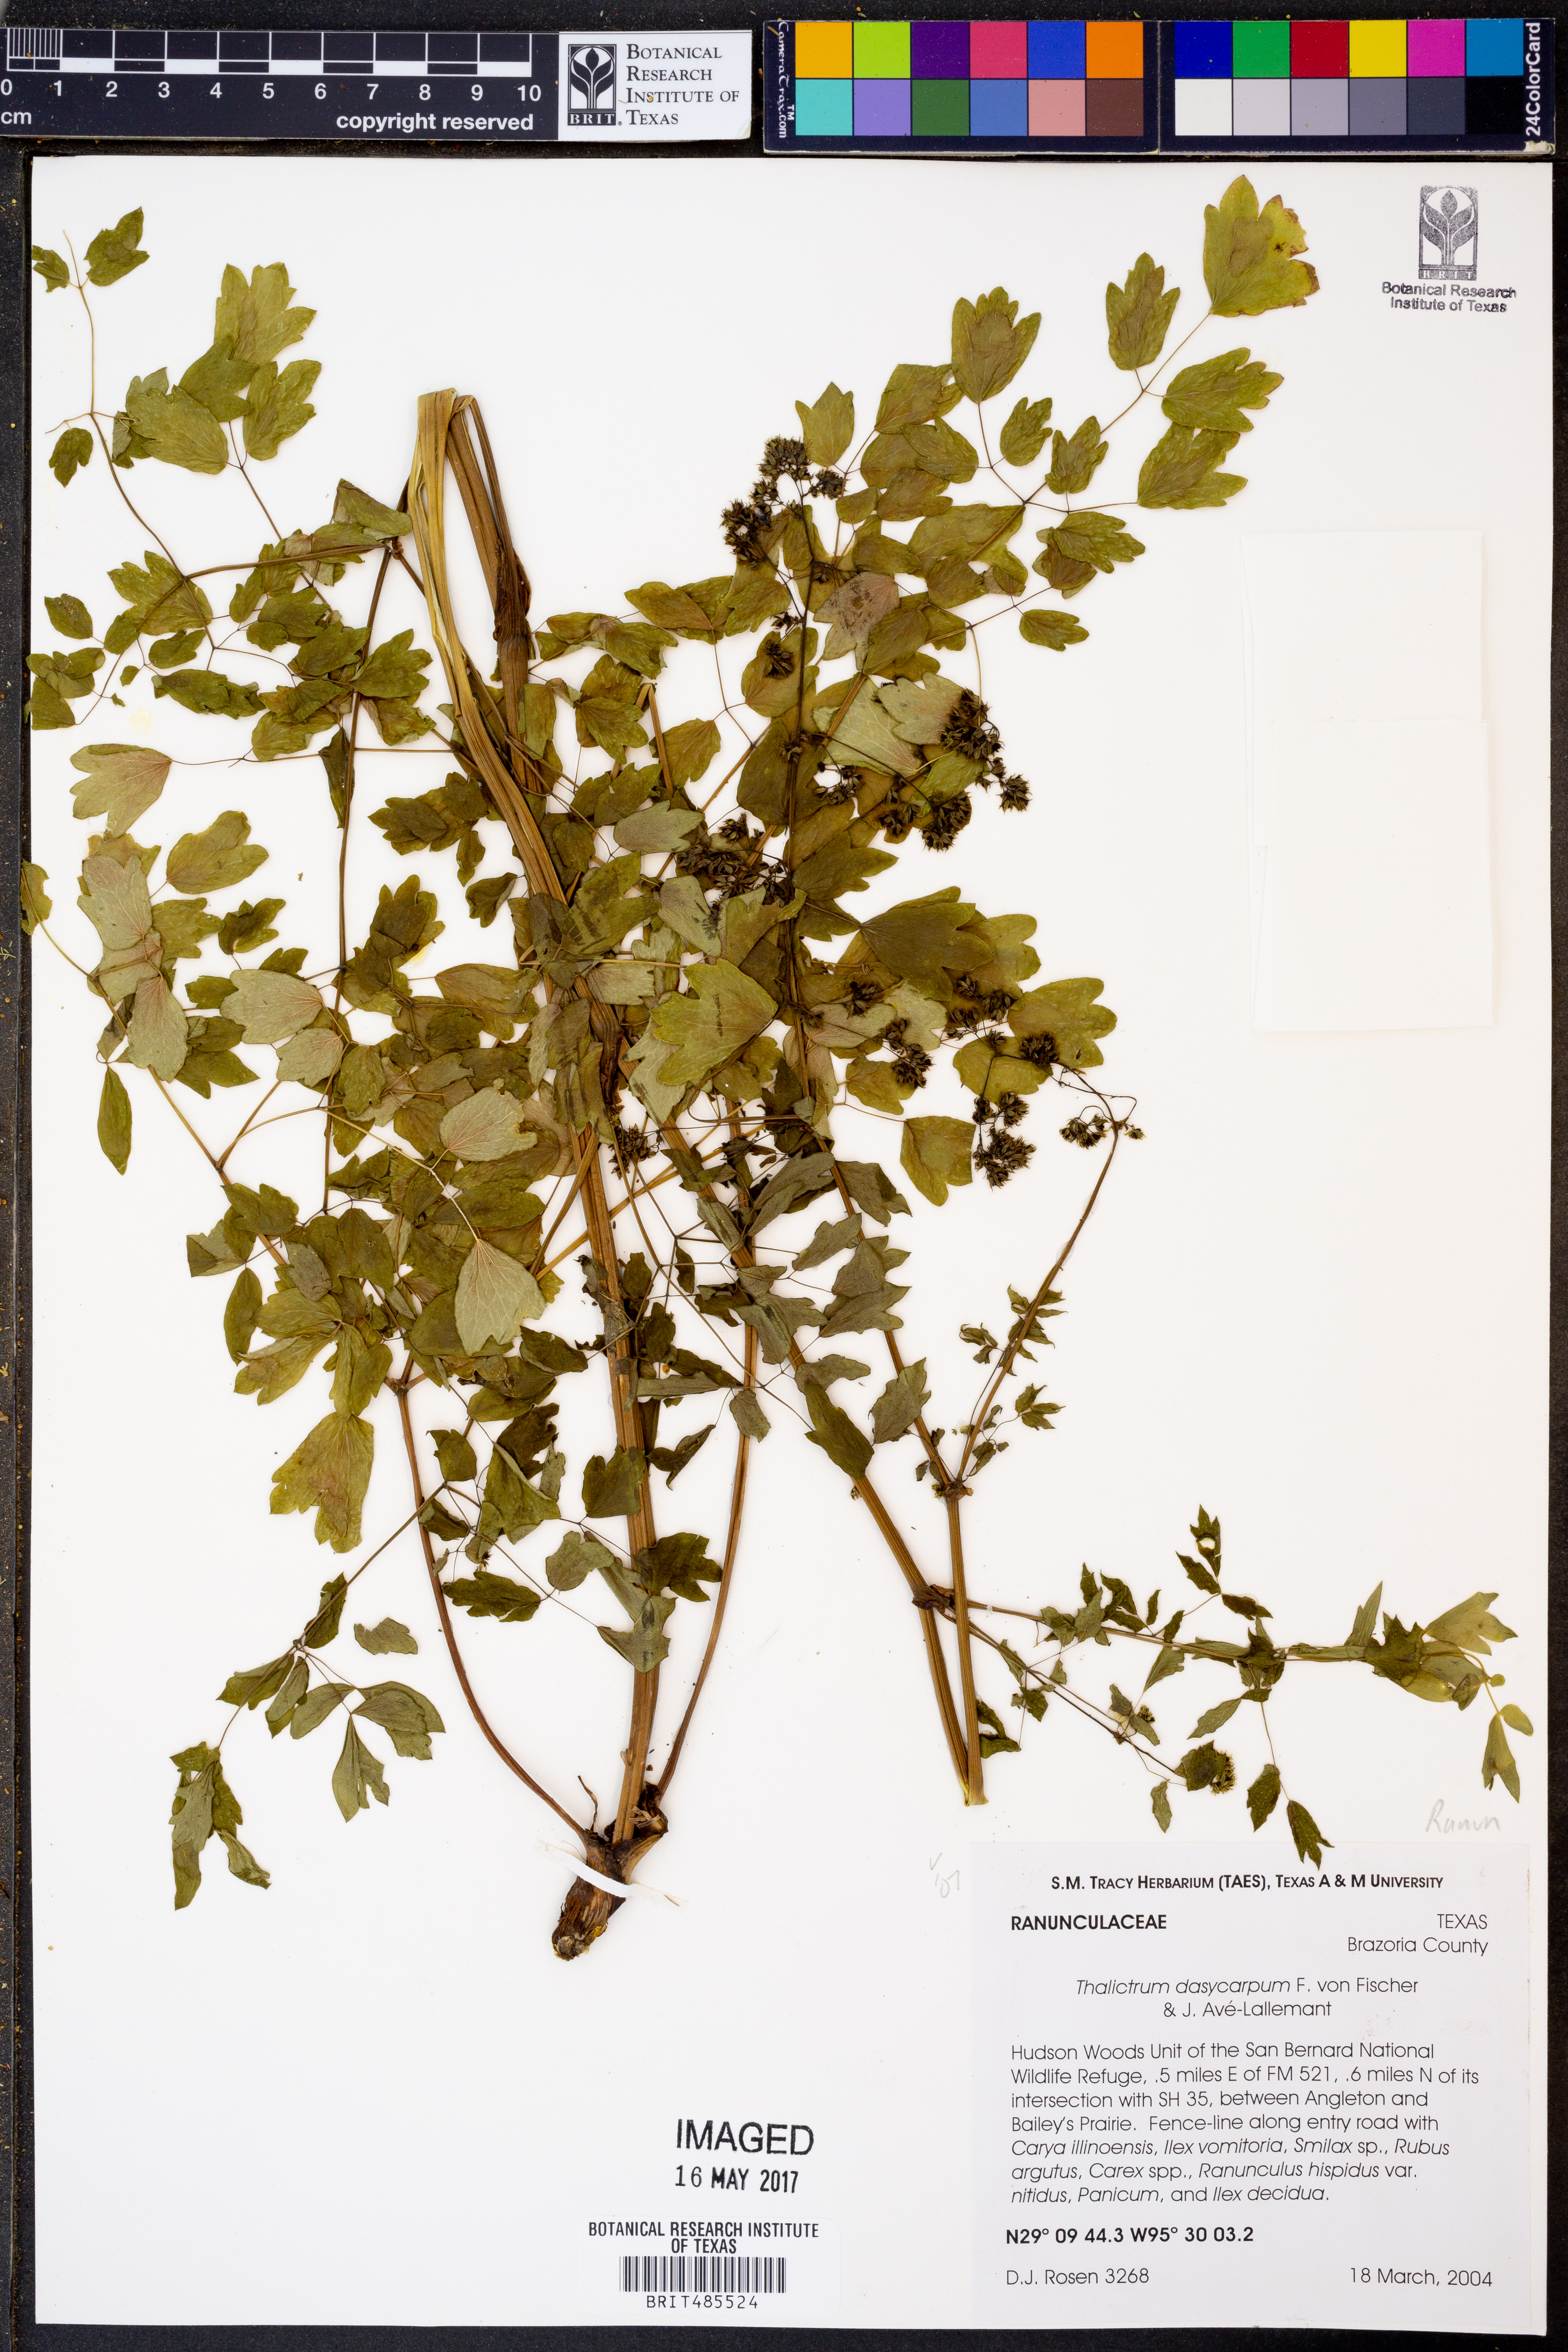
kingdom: Plantae
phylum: Tracheophyta
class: Magnoliopsida
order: Ranunculales
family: Ranunculaceae
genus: Thalictrum
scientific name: Thalictrum dasycarpum
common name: Purple meadow-rue
